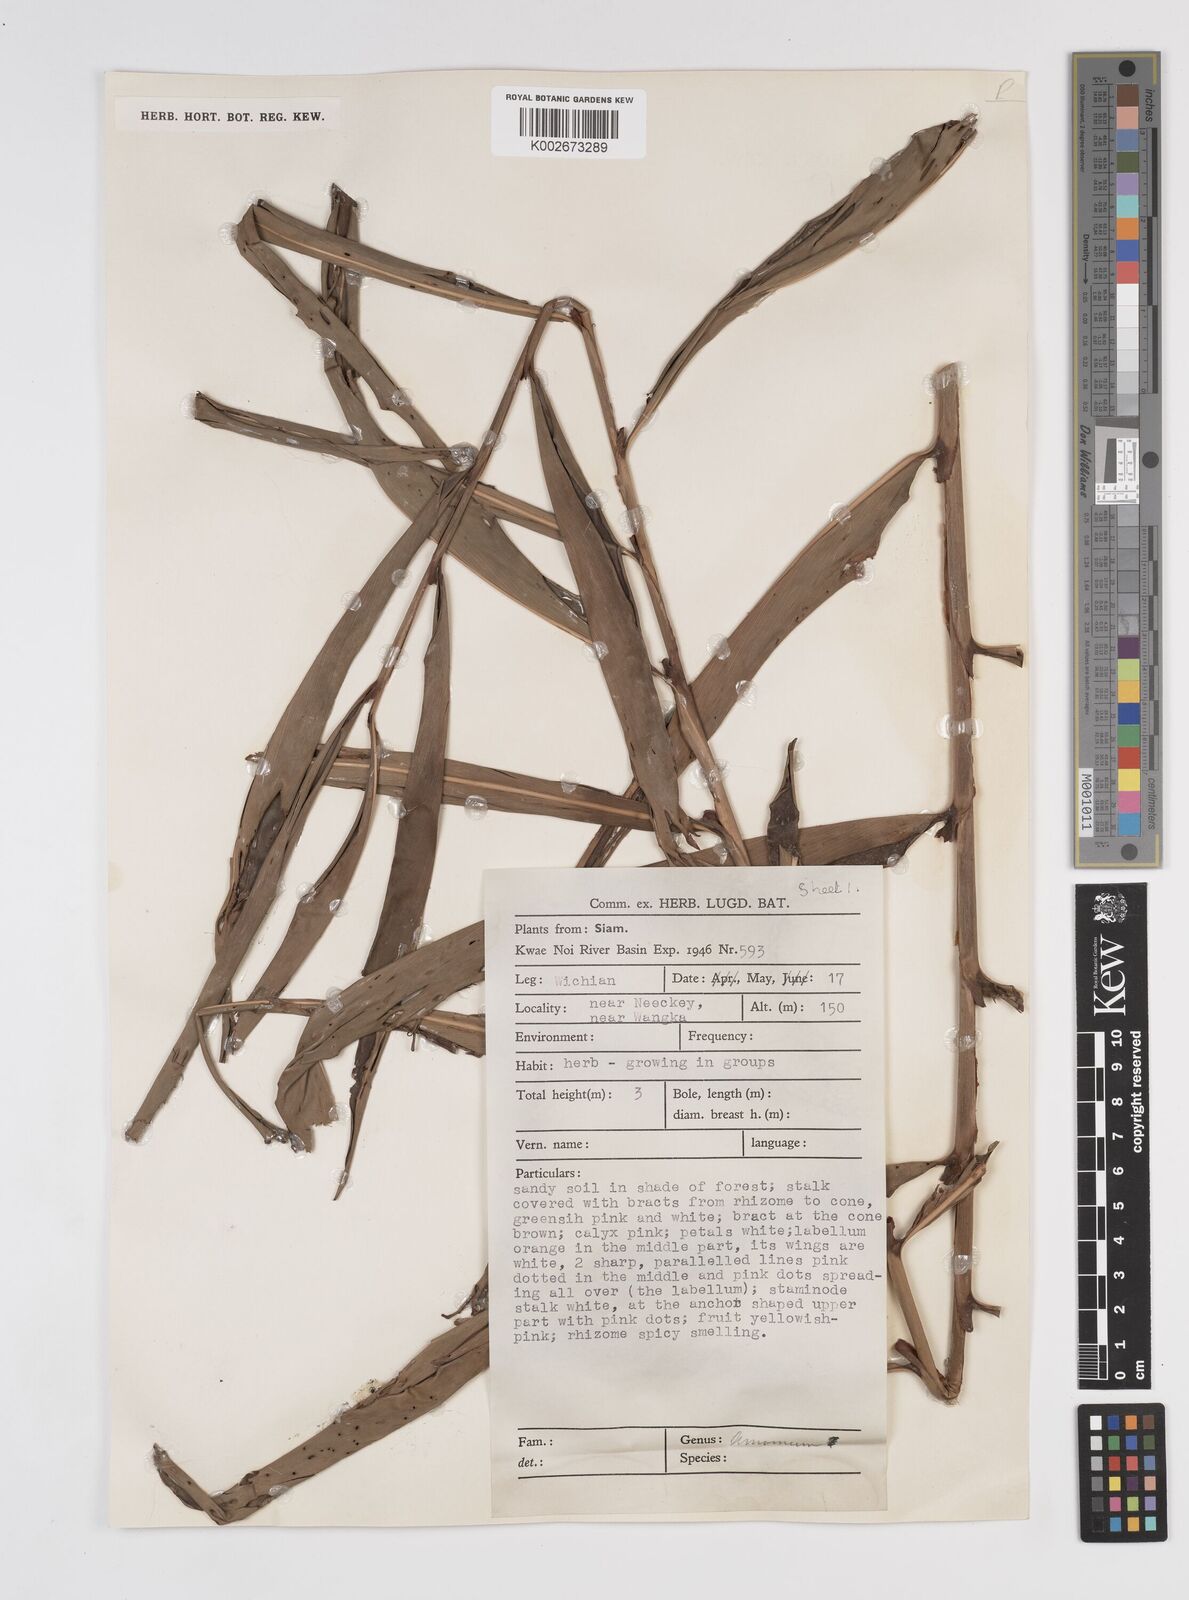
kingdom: Plantae
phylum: Tracheophyta
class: Liliopsida
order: Zingiberales
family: Zingiberaceae
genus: Amomum
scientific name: Amomum
